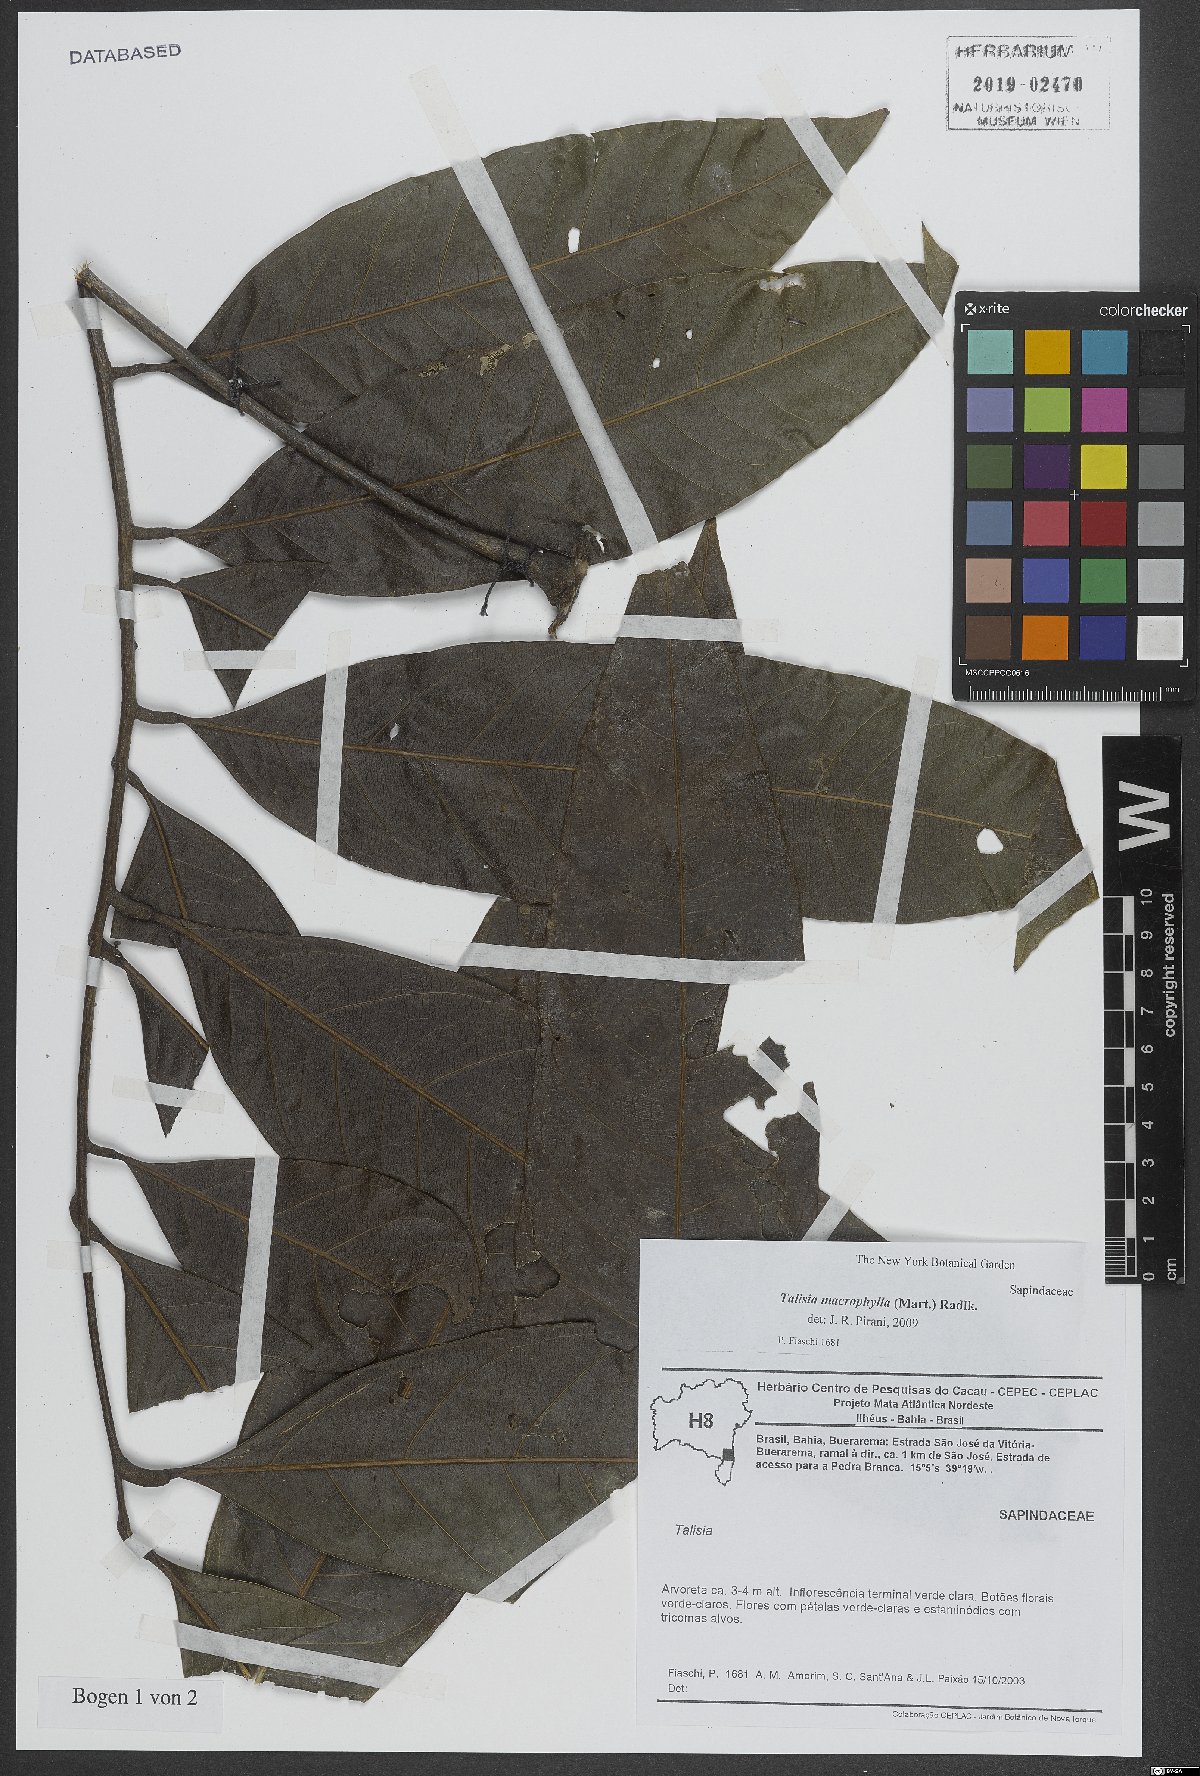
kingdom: Plantae
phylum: Tracheophyta
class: Magnoliopsida
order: Sapindales
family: Sapindaceae
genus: Talisia
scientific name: Talisia macrophylla
